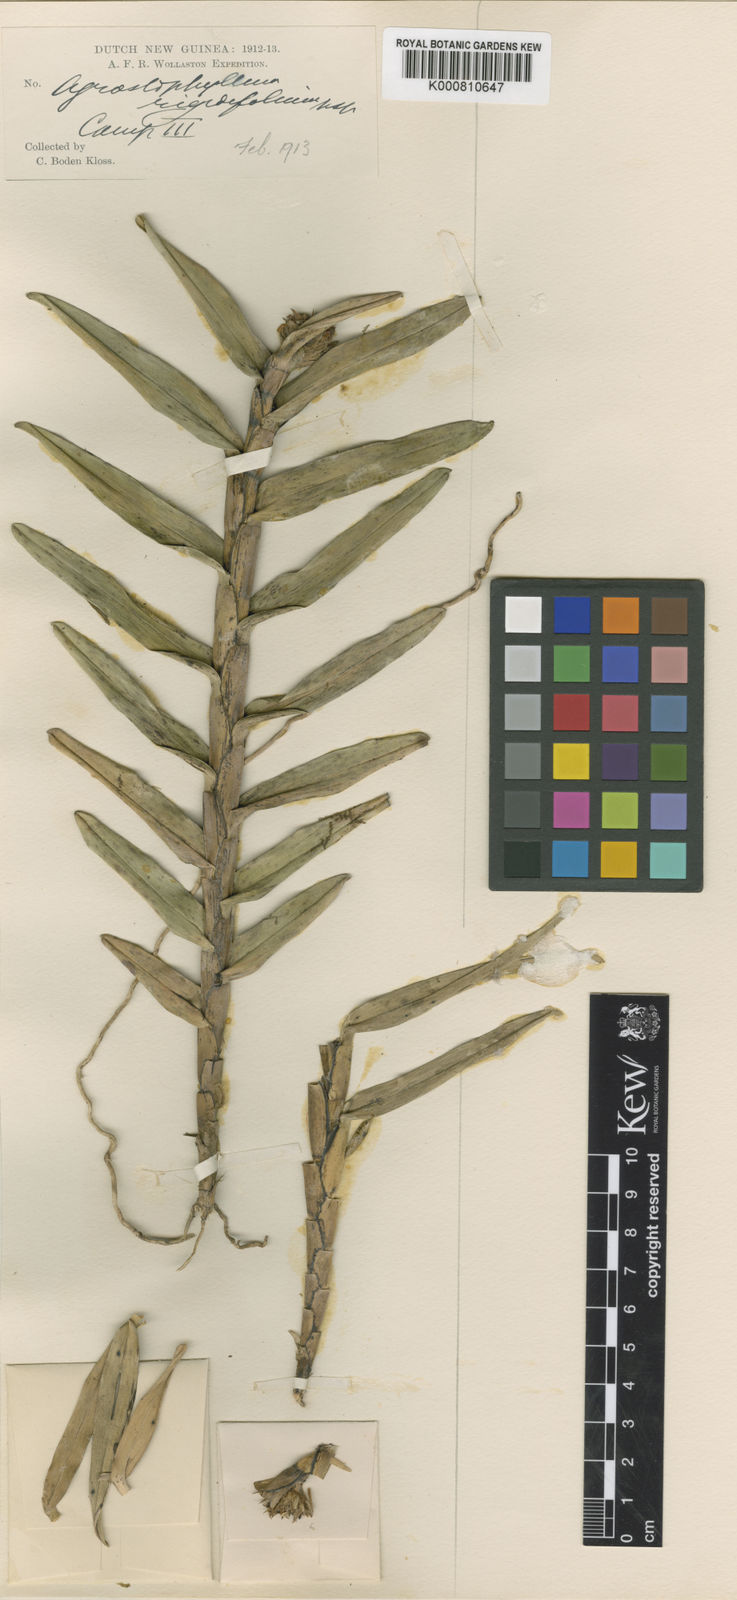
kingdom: Plantae
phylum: Tracheophyta
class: Liliopsida
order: Asparagales
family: Orchidaceae
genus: Agrostophyllum
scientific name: Agrostophyllum rigidifolium
